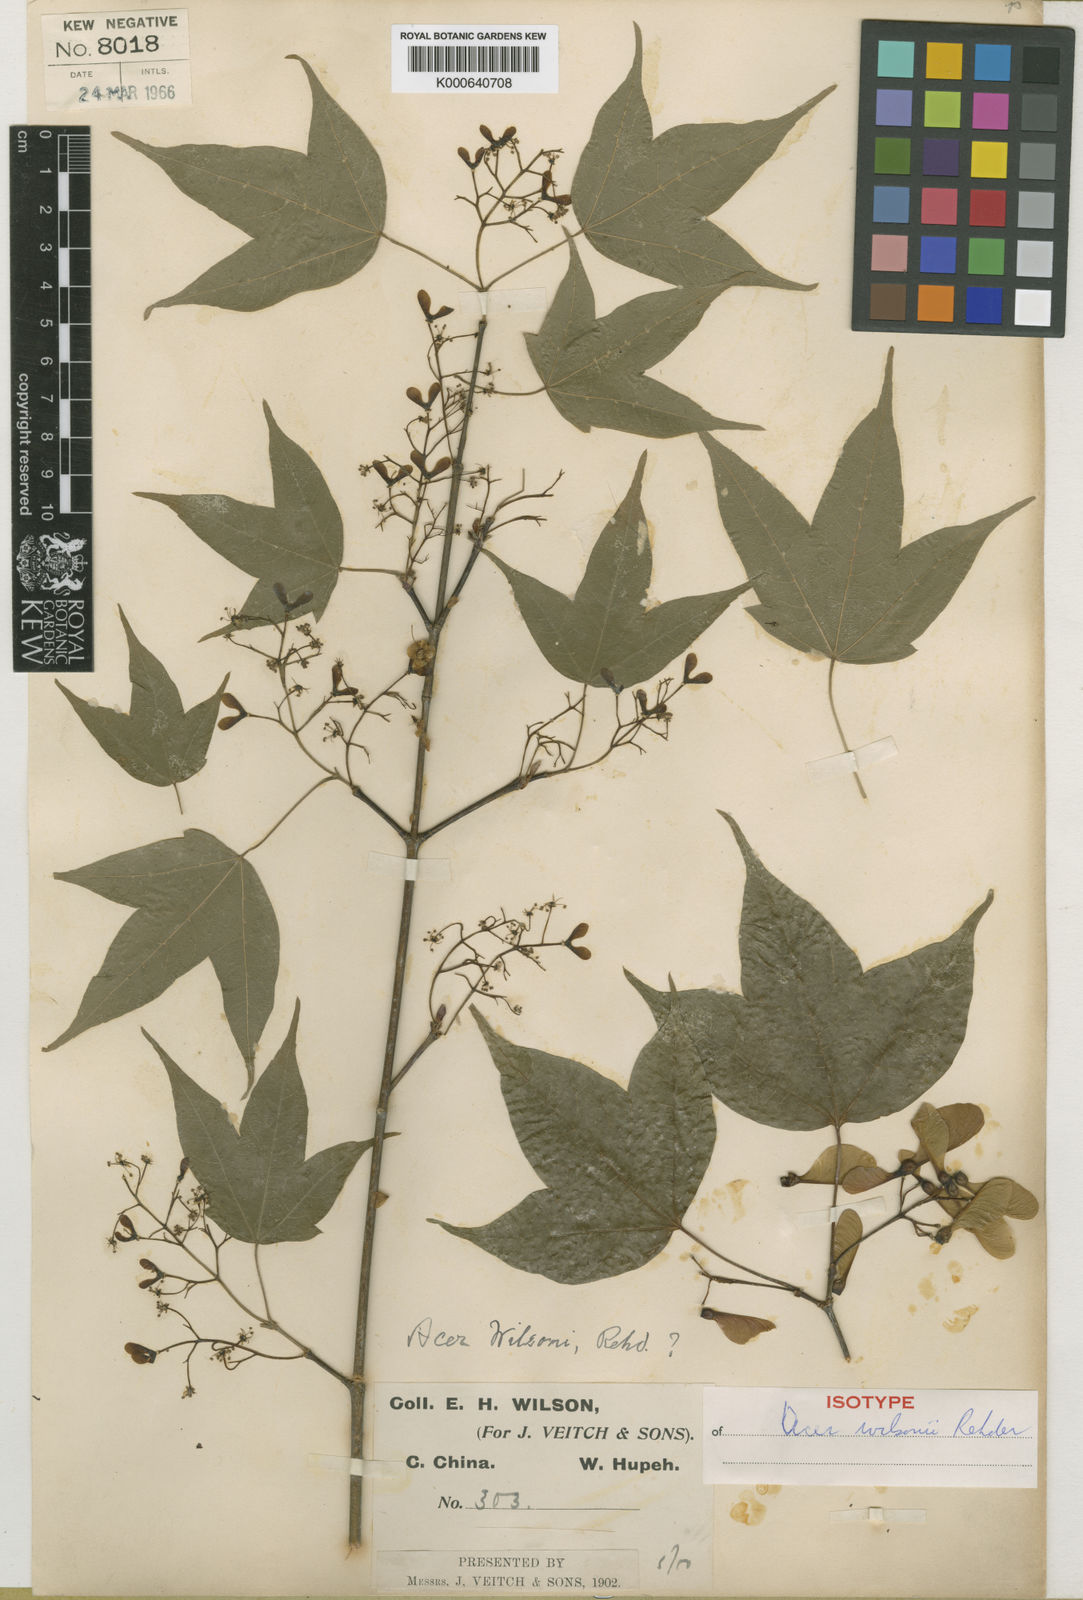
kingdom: Plantae
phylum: Tracheophyta
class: Magnoliopsida
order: Sapindales
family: Sapindaceae
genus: Acer
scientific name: Acer wilsonii
